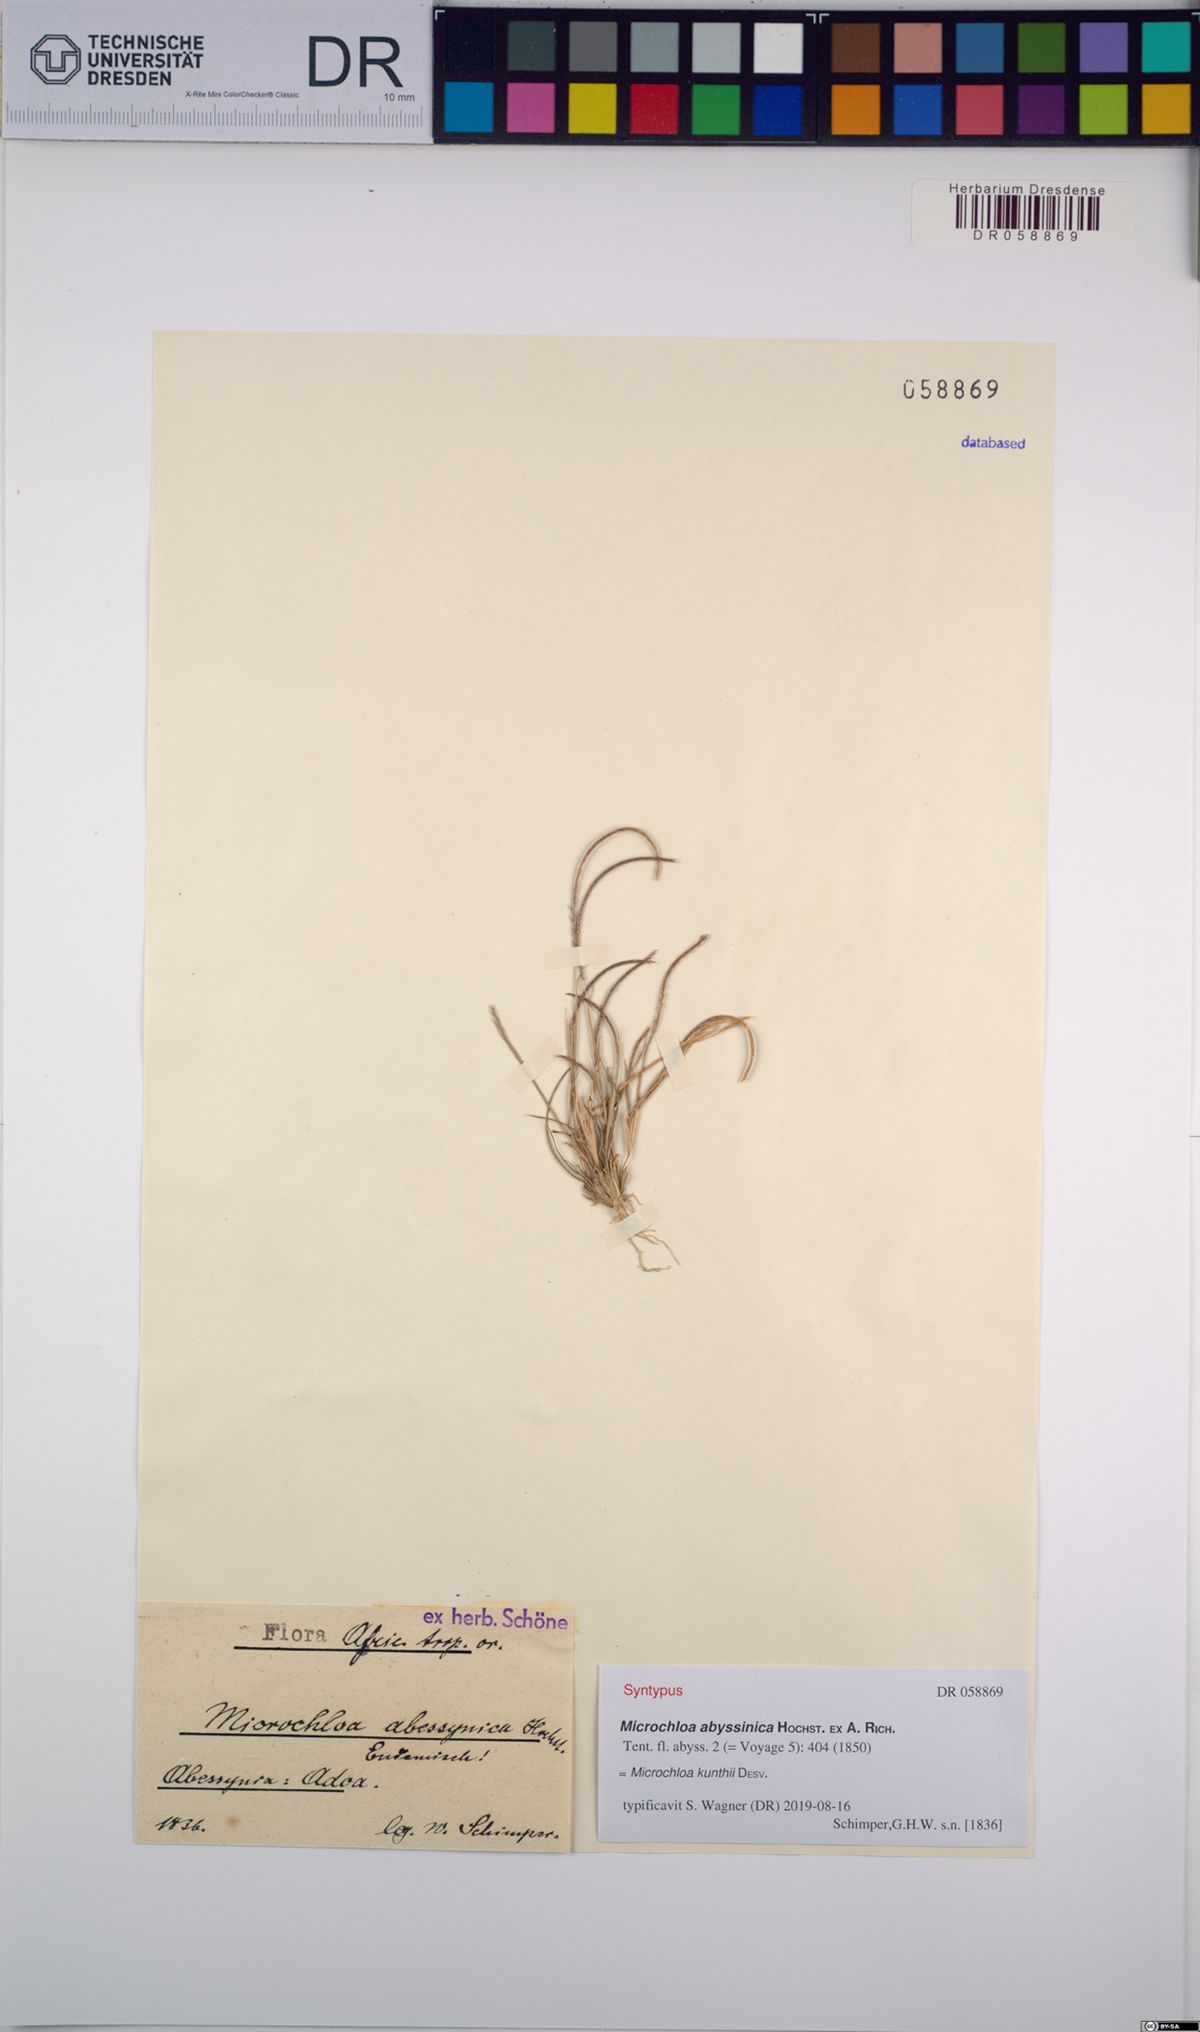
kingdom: Plantae
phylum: Tracheophyta
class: Liliopsida
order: Poales
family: Poaceae
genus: Microchloa
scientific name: Microchloa kunthii
